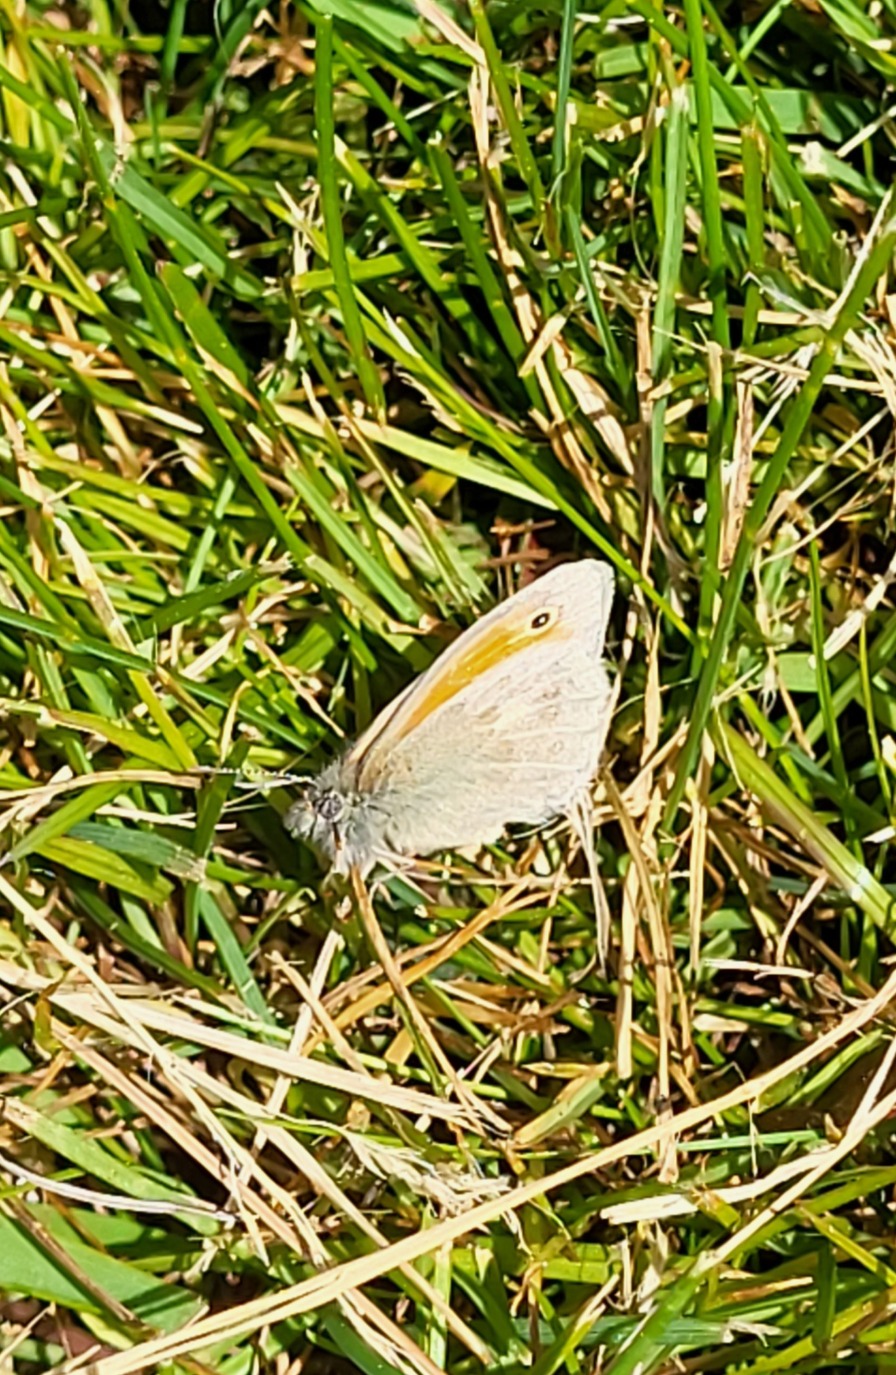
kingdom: Animalia
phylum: Arthropoda
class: Insecta
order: Lepidoptera
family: Nymphalidae
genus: Coenonympha
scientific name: Coenonympha pamphilus
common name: Okkergul randøje
